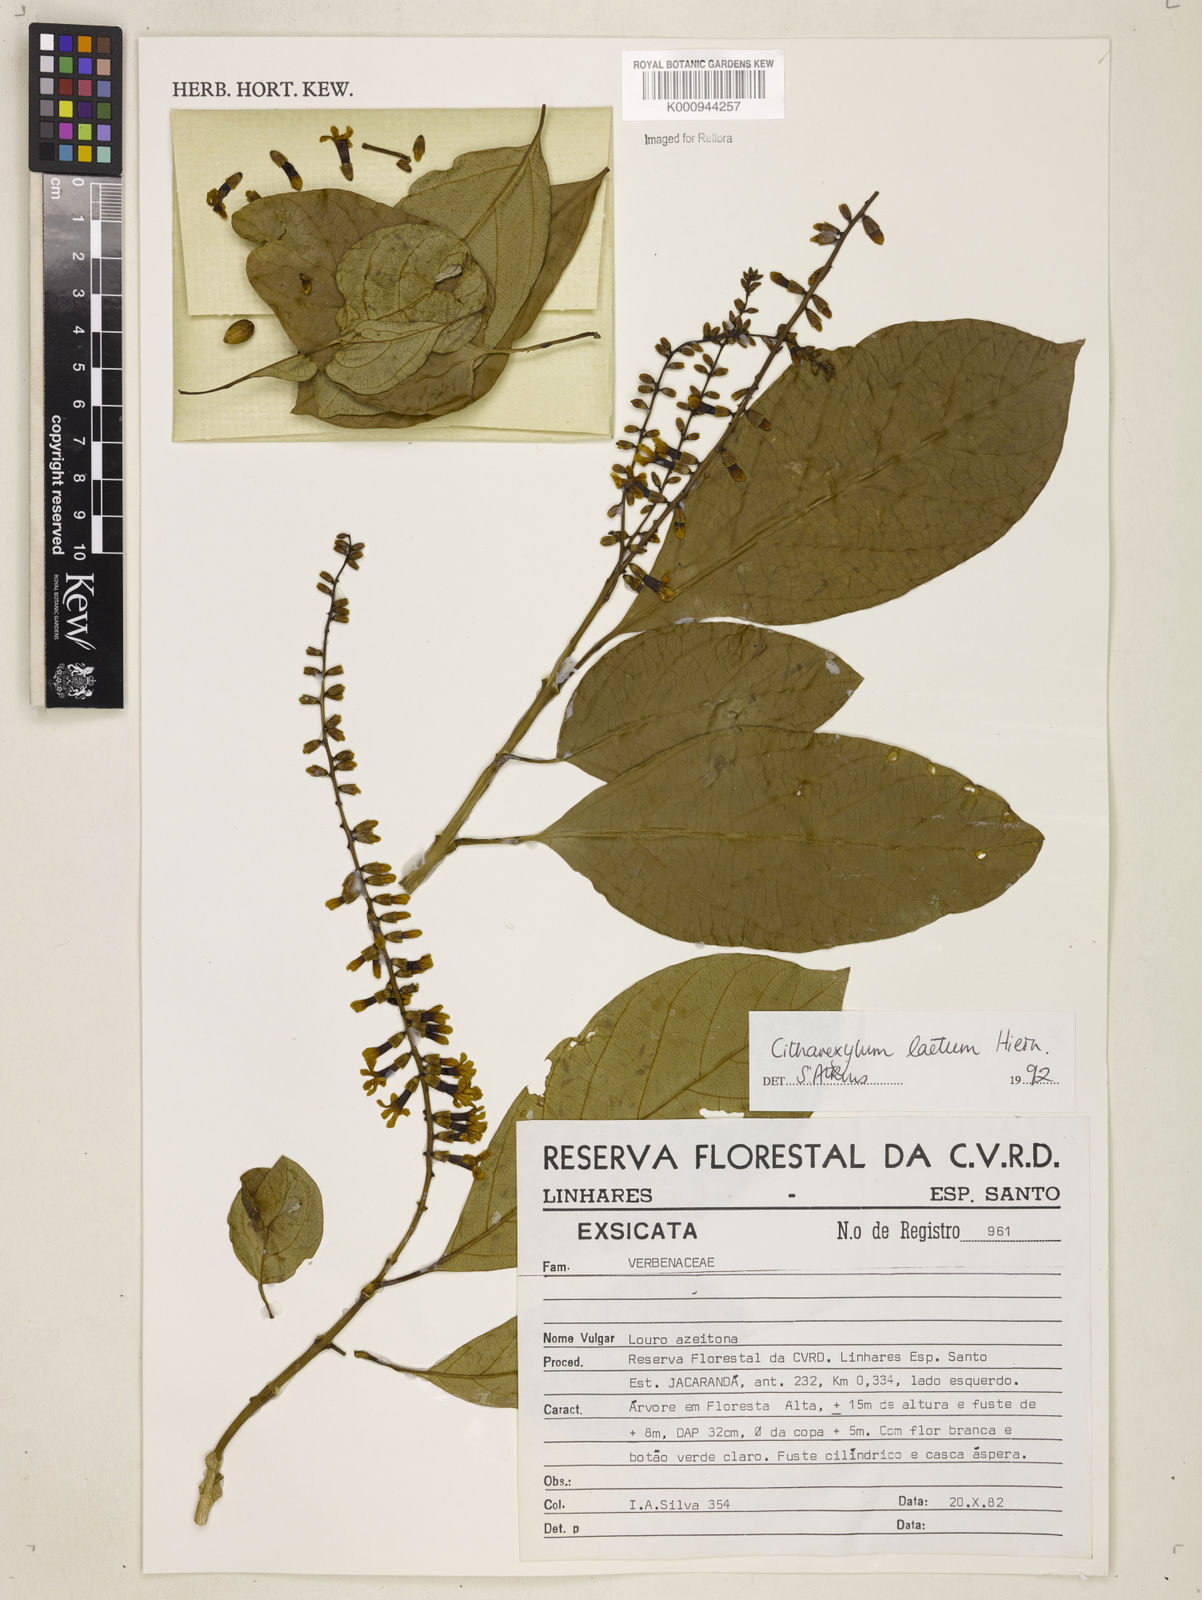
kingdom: Plantae
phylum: Tracheophyta
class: Magnoliopsida
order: Lamiales
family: Verbenaceae
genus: Citharexylum
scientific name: Citharexylum myrianthum
